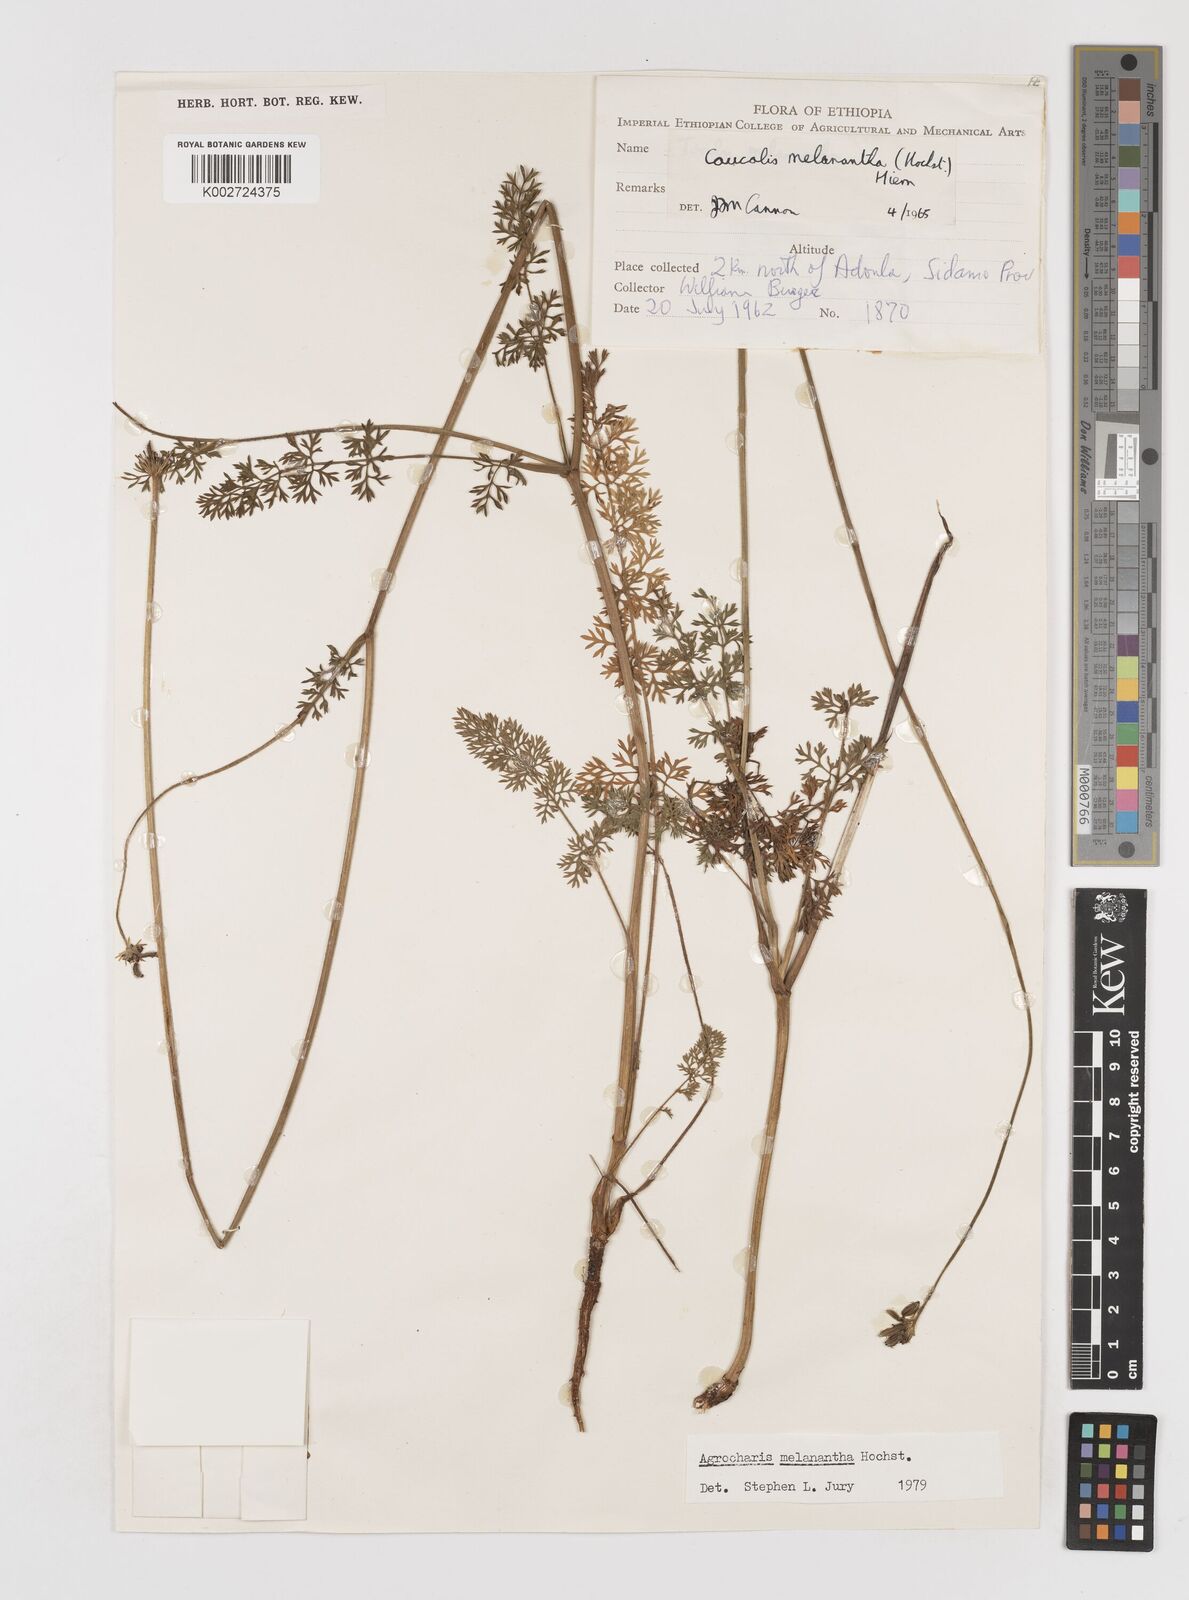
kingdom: Plantae
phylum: Tracheophyta
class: Magnoliopsida
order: Apiales
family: Apiaceae
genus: Daucus
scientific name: Daucus melananthus
